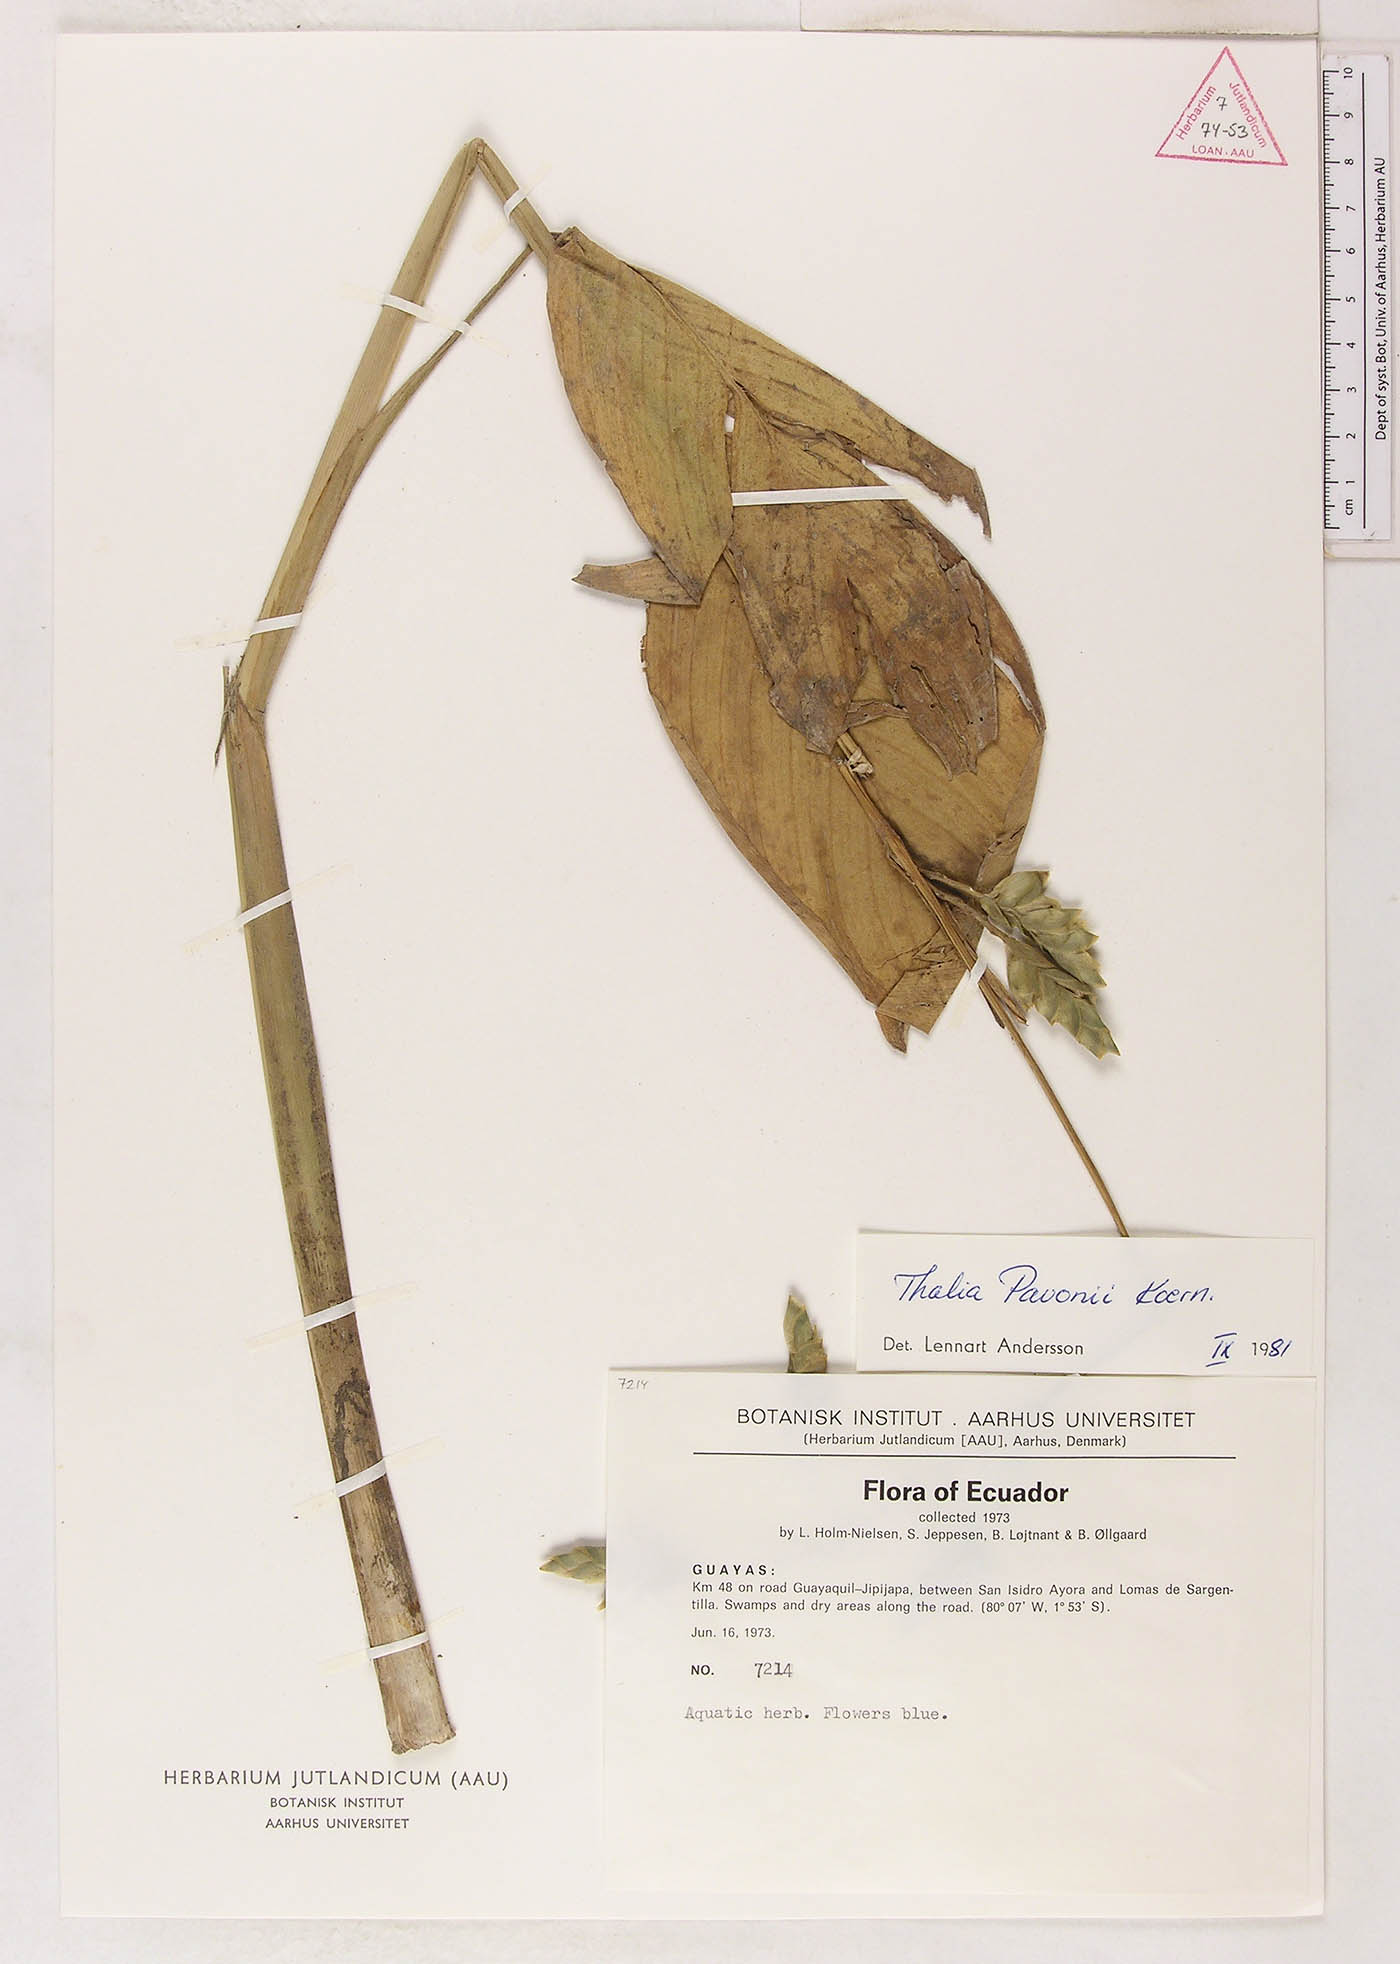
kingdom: Plantae
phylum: Tracheophyta
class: Liliopsida
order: Zingiberales
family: Marantaceae
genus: Thalia
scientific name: Thalia pavonii
